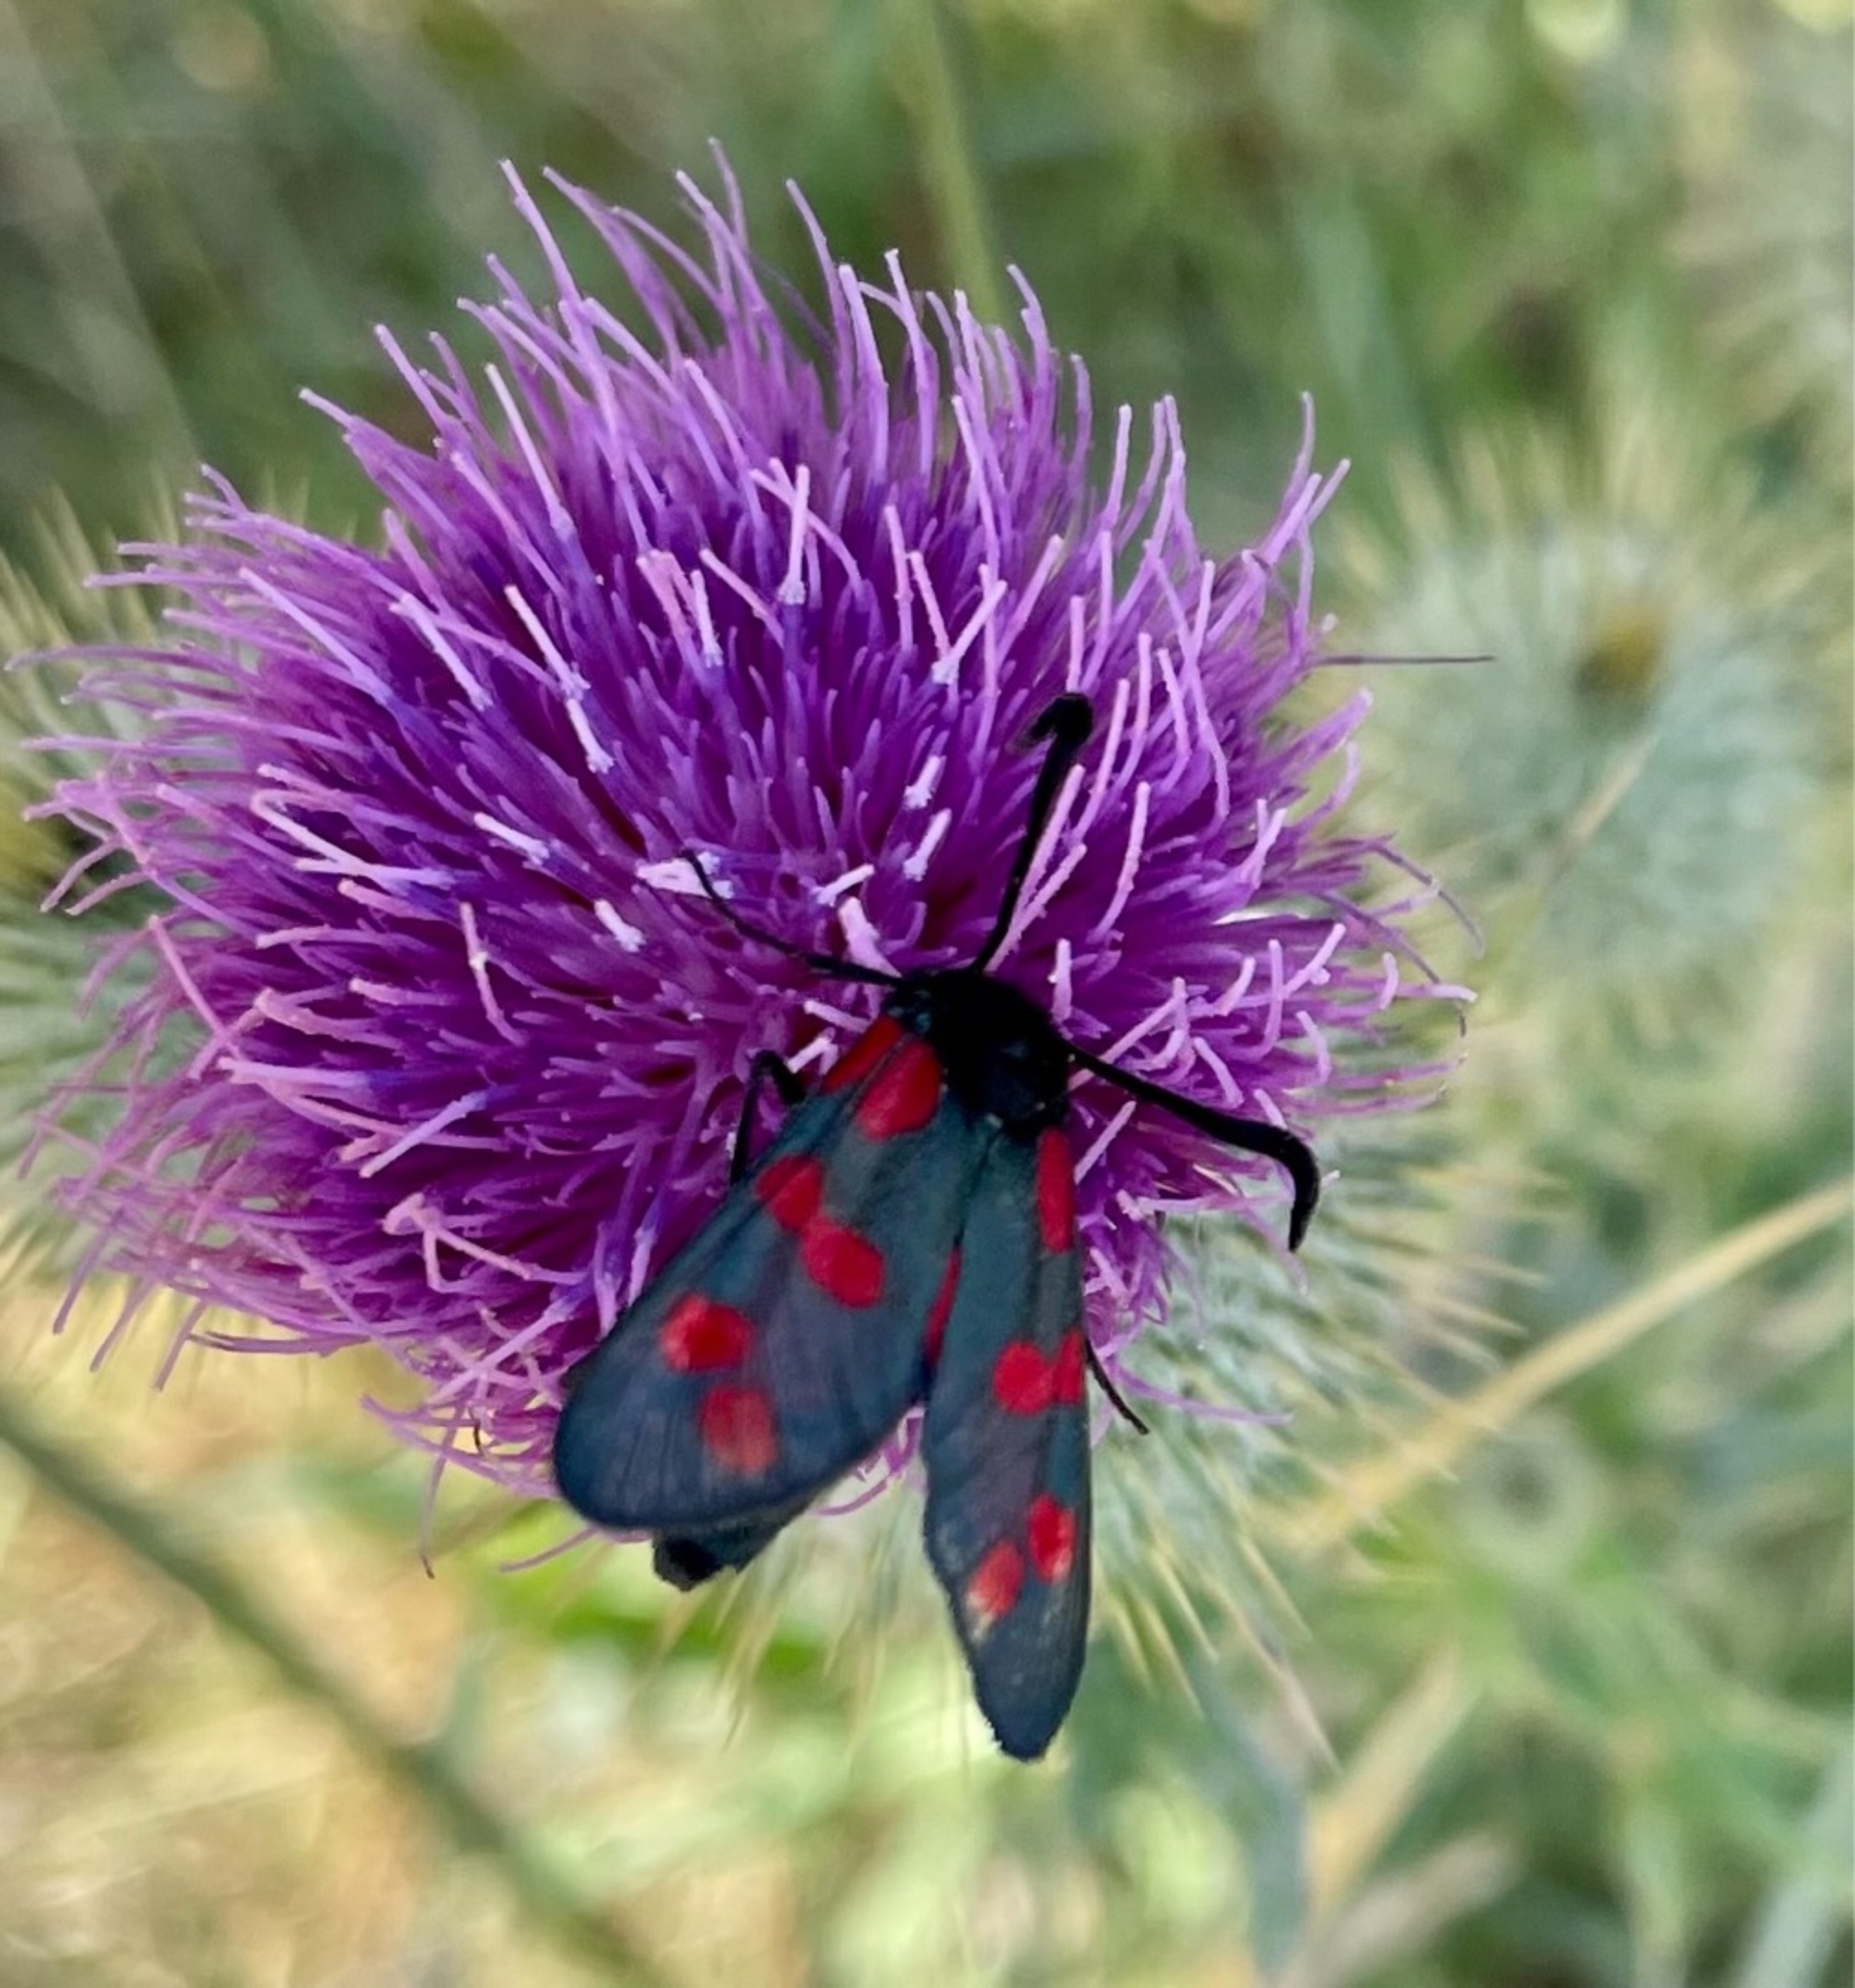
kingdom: Animalia
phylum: Arthropoda
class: Insecta
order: Lepidoptera
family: Zygaenidae
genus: Zygaena
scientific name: Zygaena filipendulae
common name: Seksplettet køllesværmer
